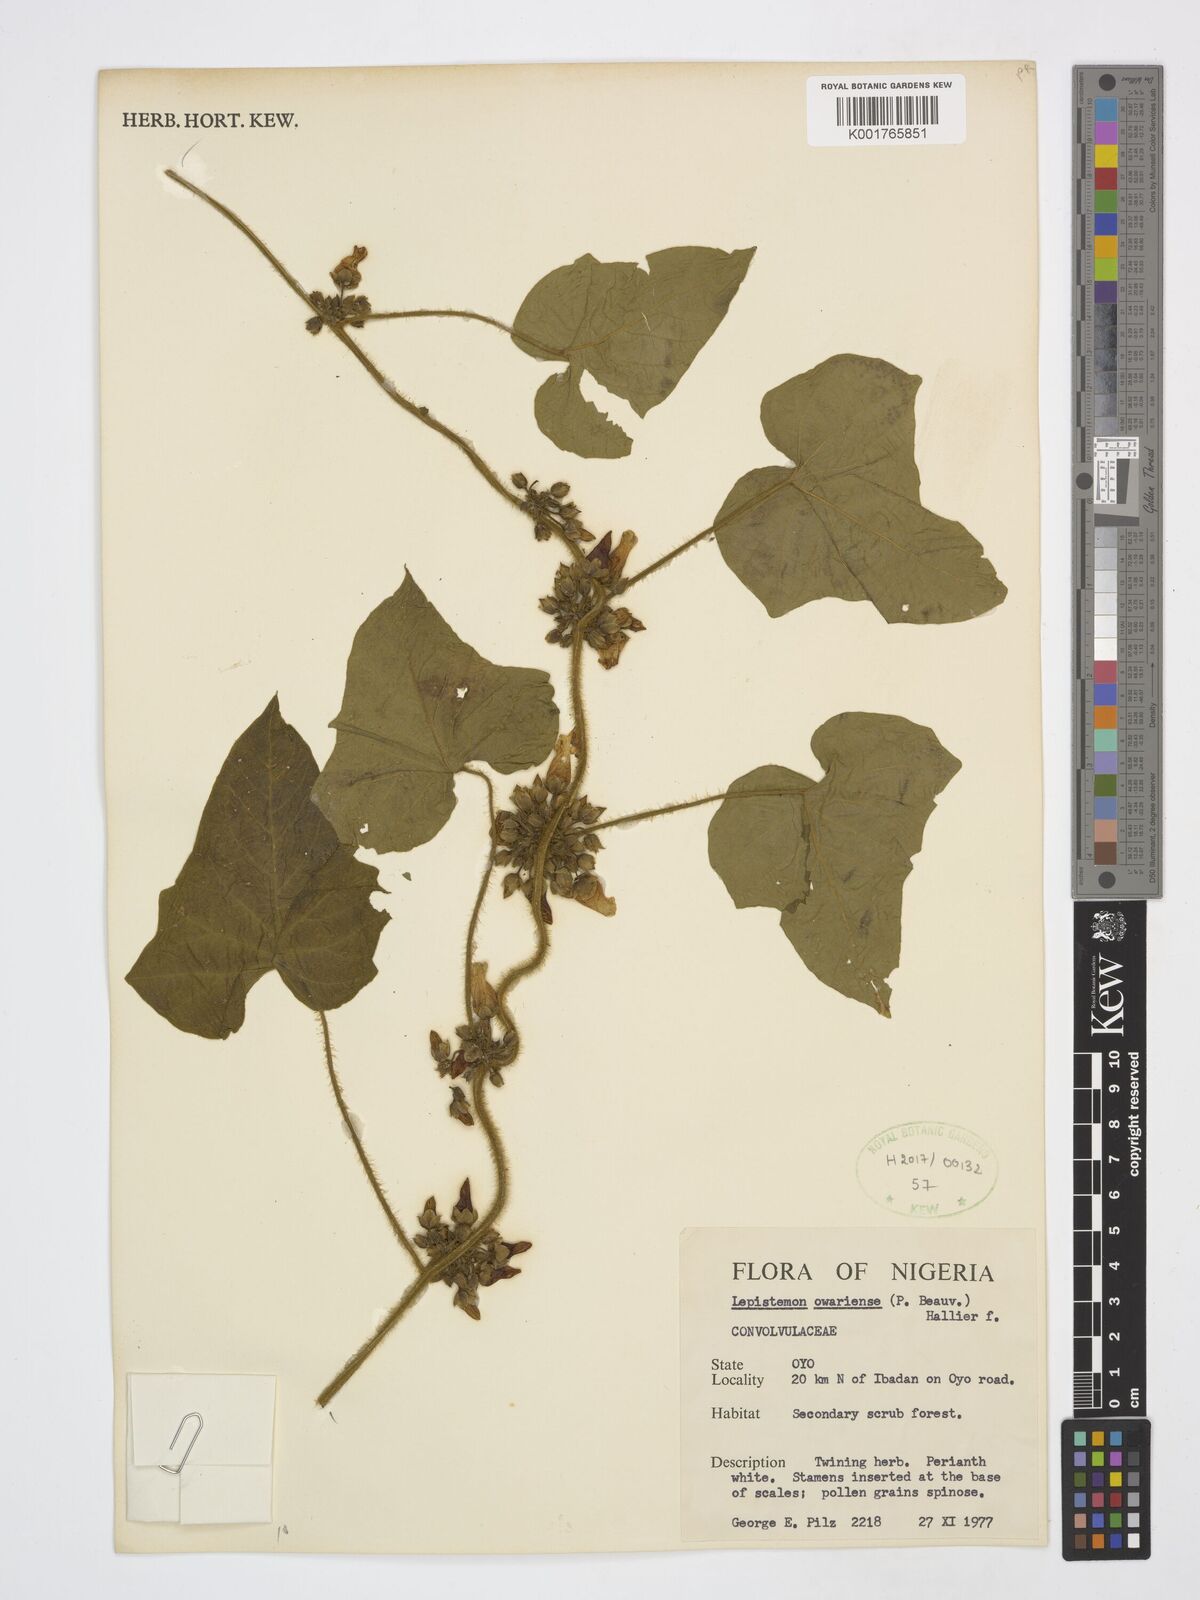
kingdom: Plantae
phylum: Tracheophyta
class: Magnoliopsida
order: Solanales
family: Convolvulaceae
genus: Lepistemon
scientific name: Lepistemon owariensis
